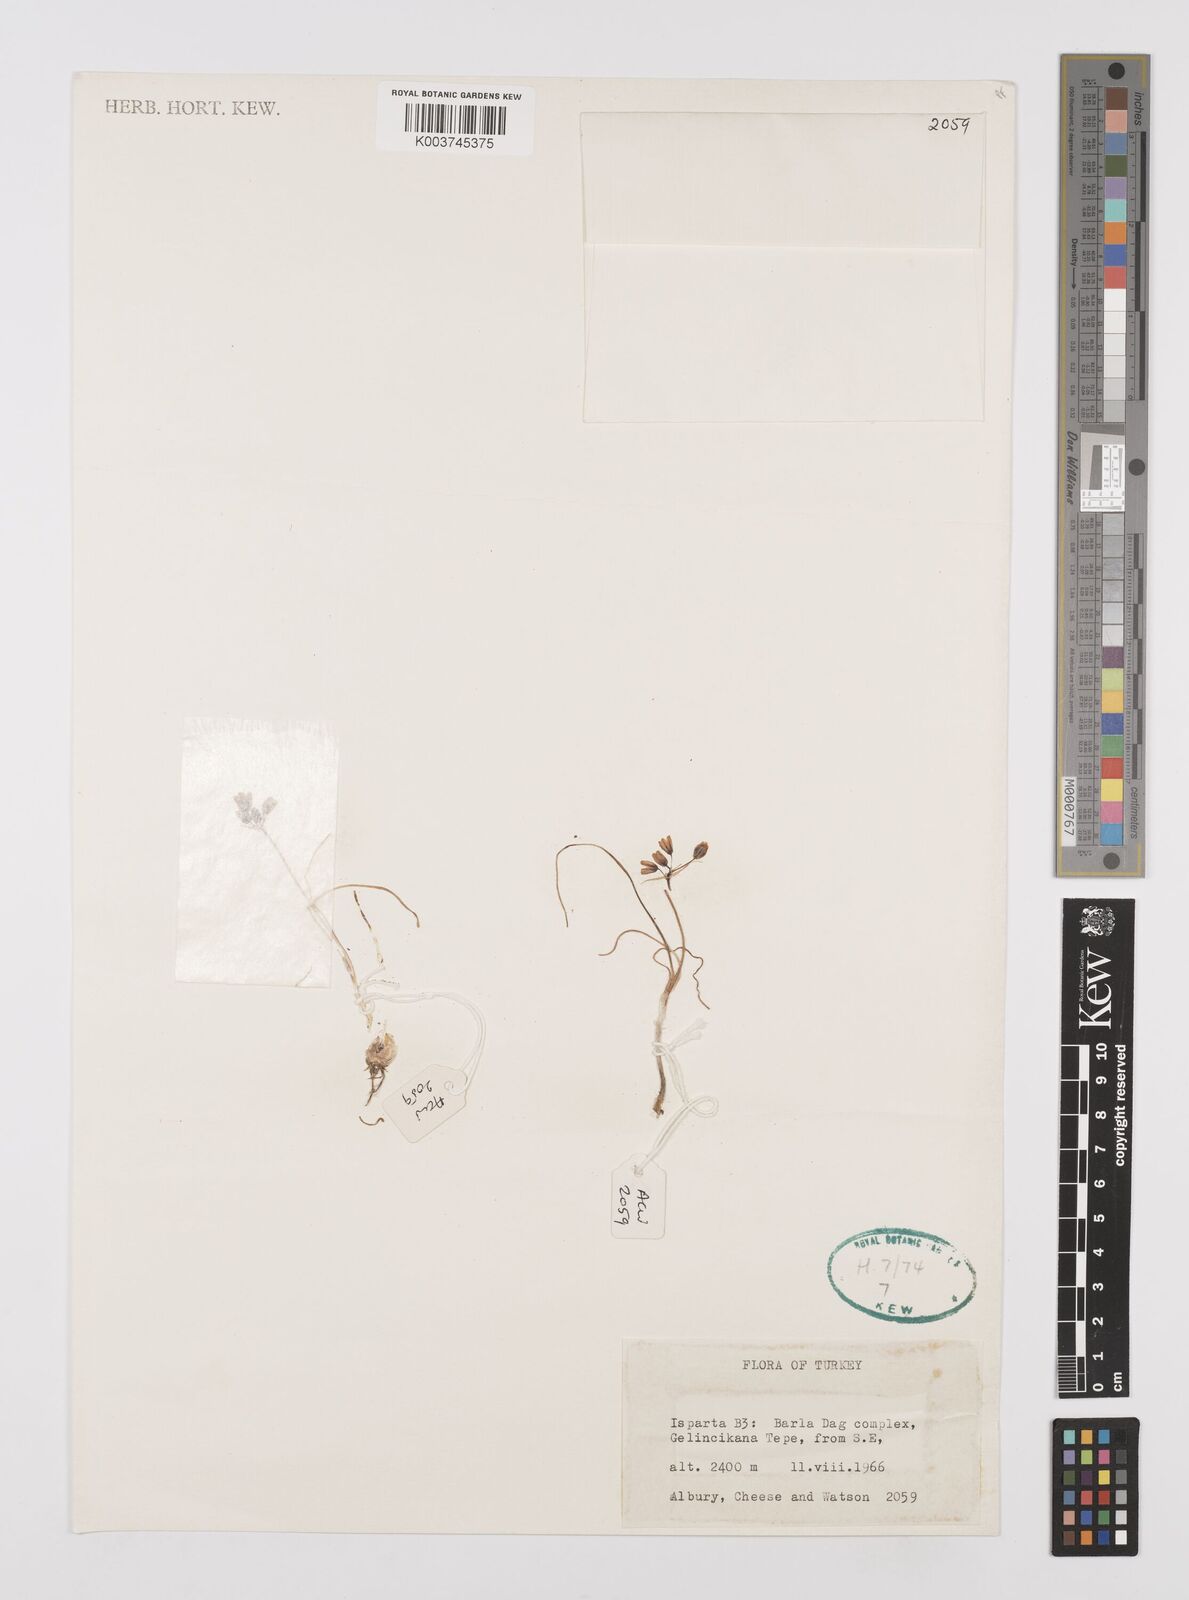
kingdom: Plantae
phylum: Tracheophyta
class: Liliopsida
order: Asparagales
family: Amaryllidaceae
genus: Allium
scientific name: Allium
